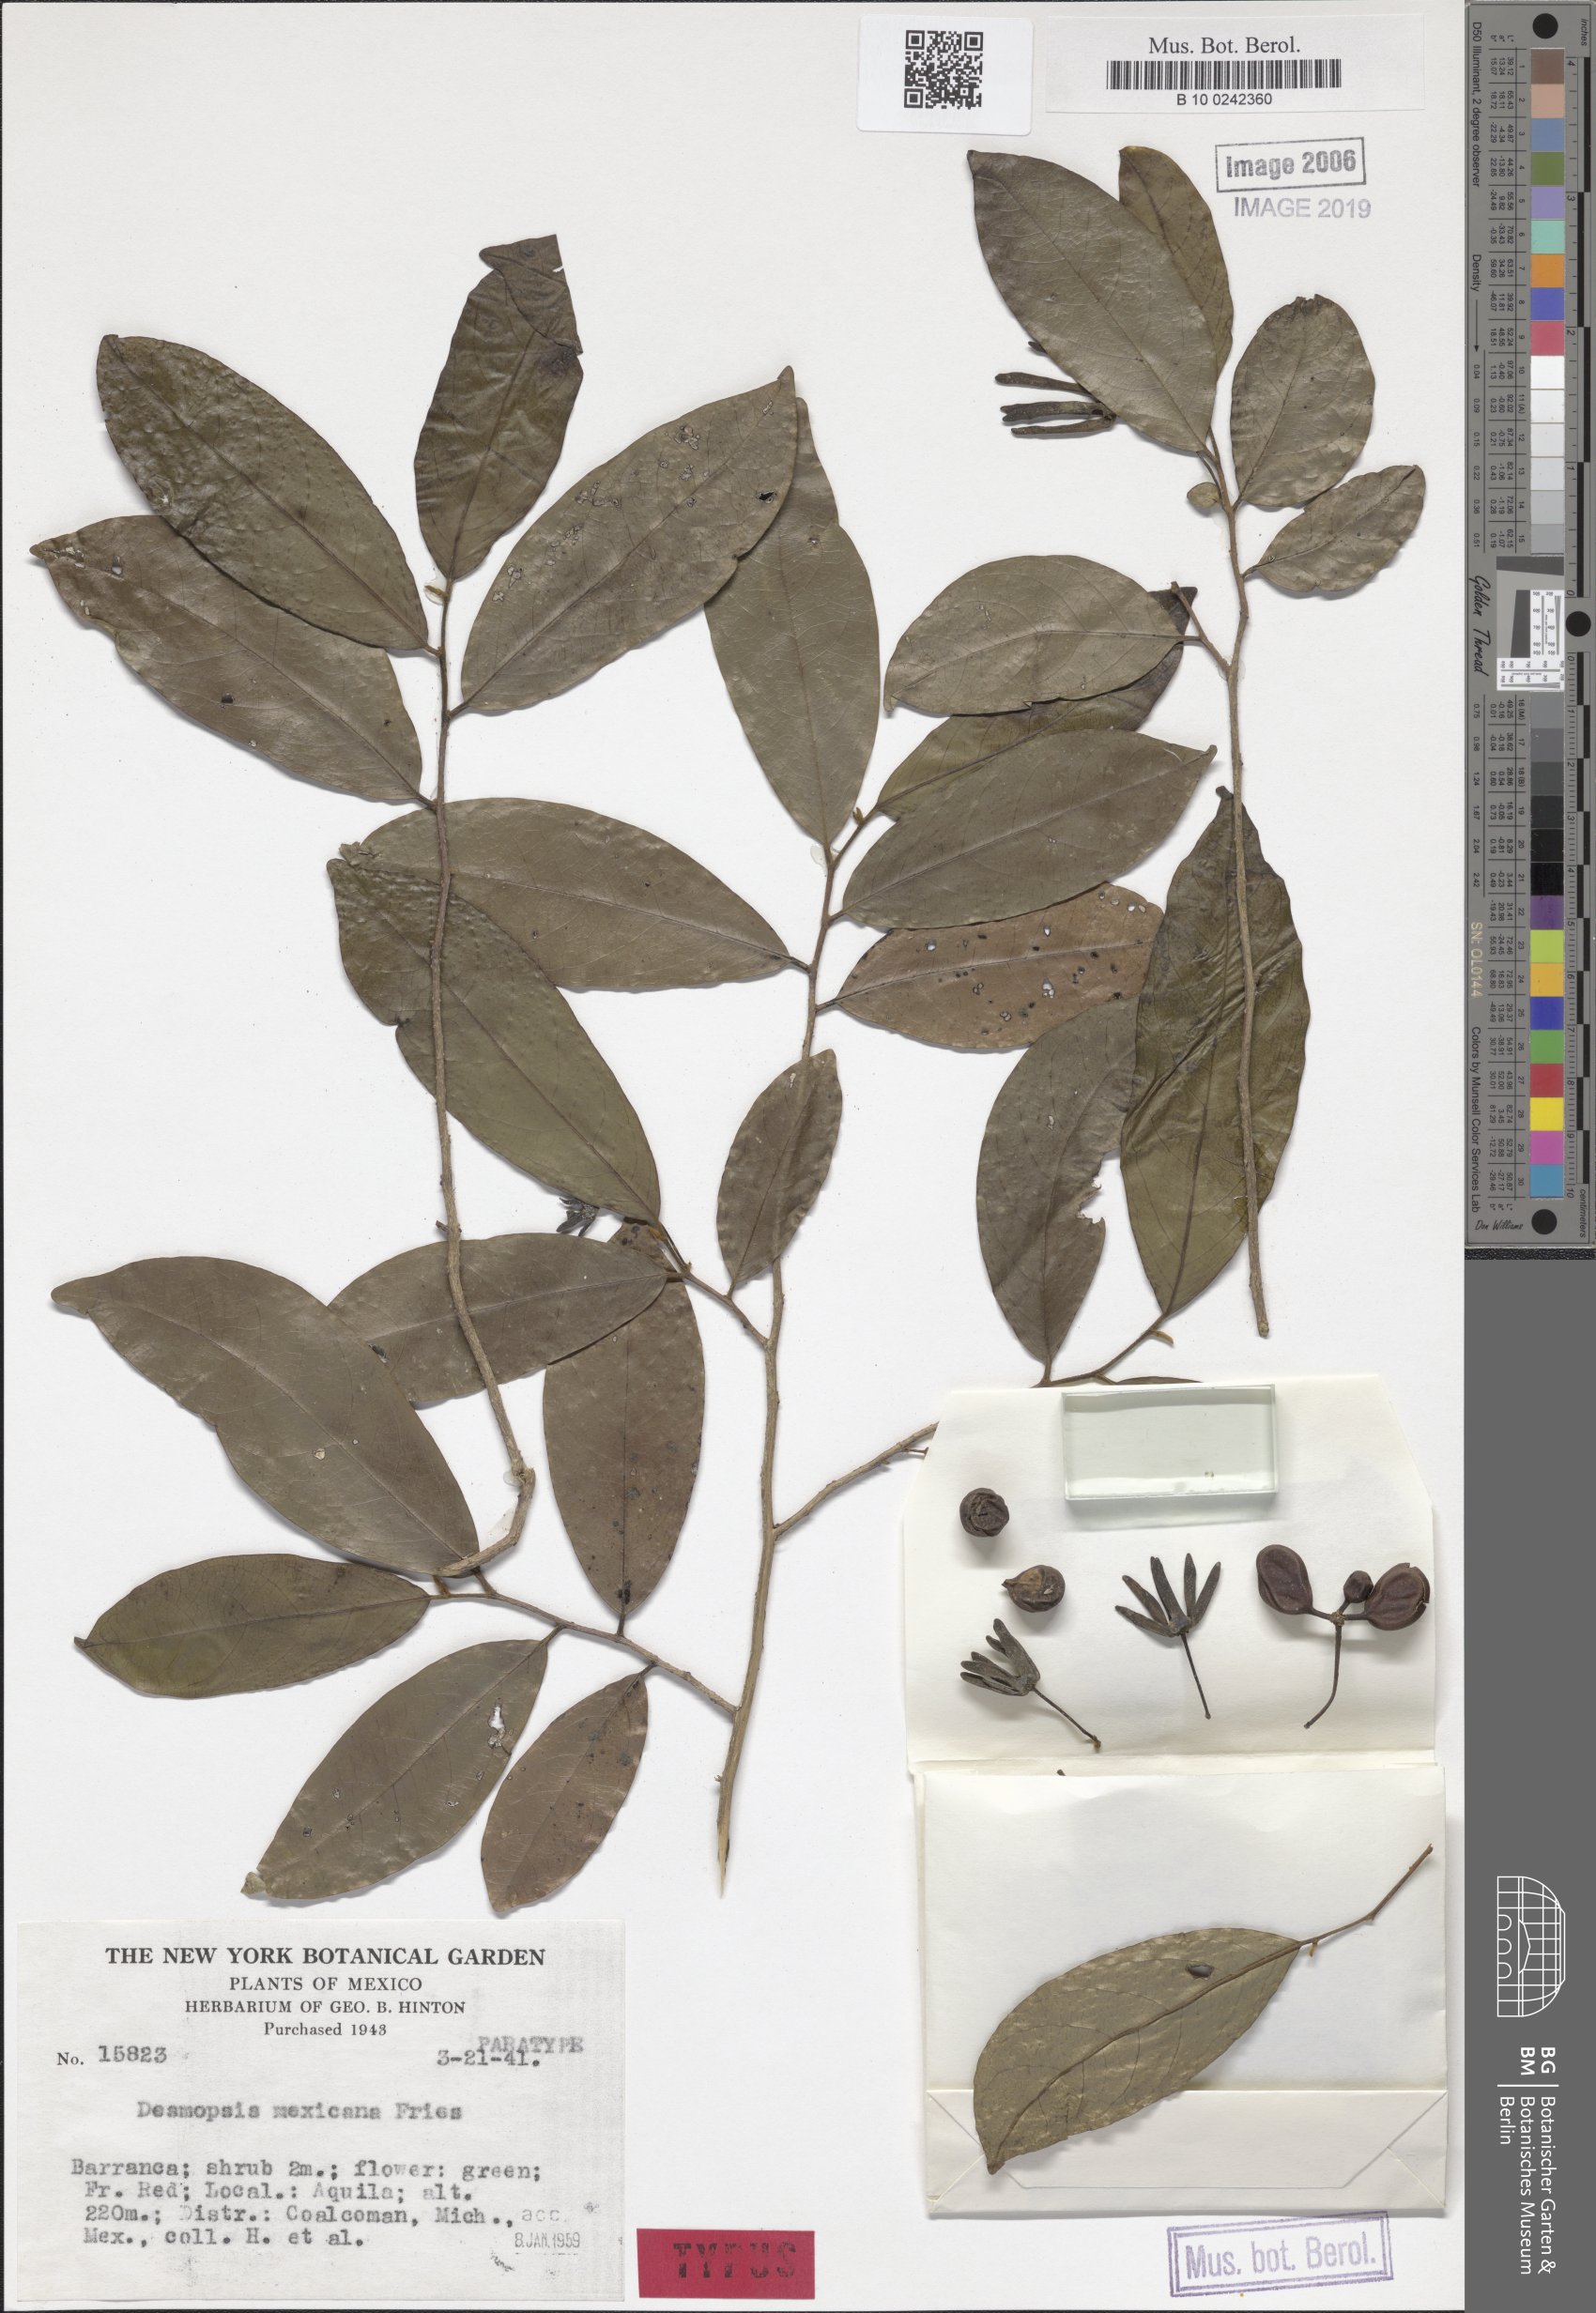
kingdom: Plantae
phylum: Tracheophyta
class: Magnoliopsida
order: Magnoliales
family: Annonaceae
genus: Desmopsis
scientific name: Desmopsis mexicana
